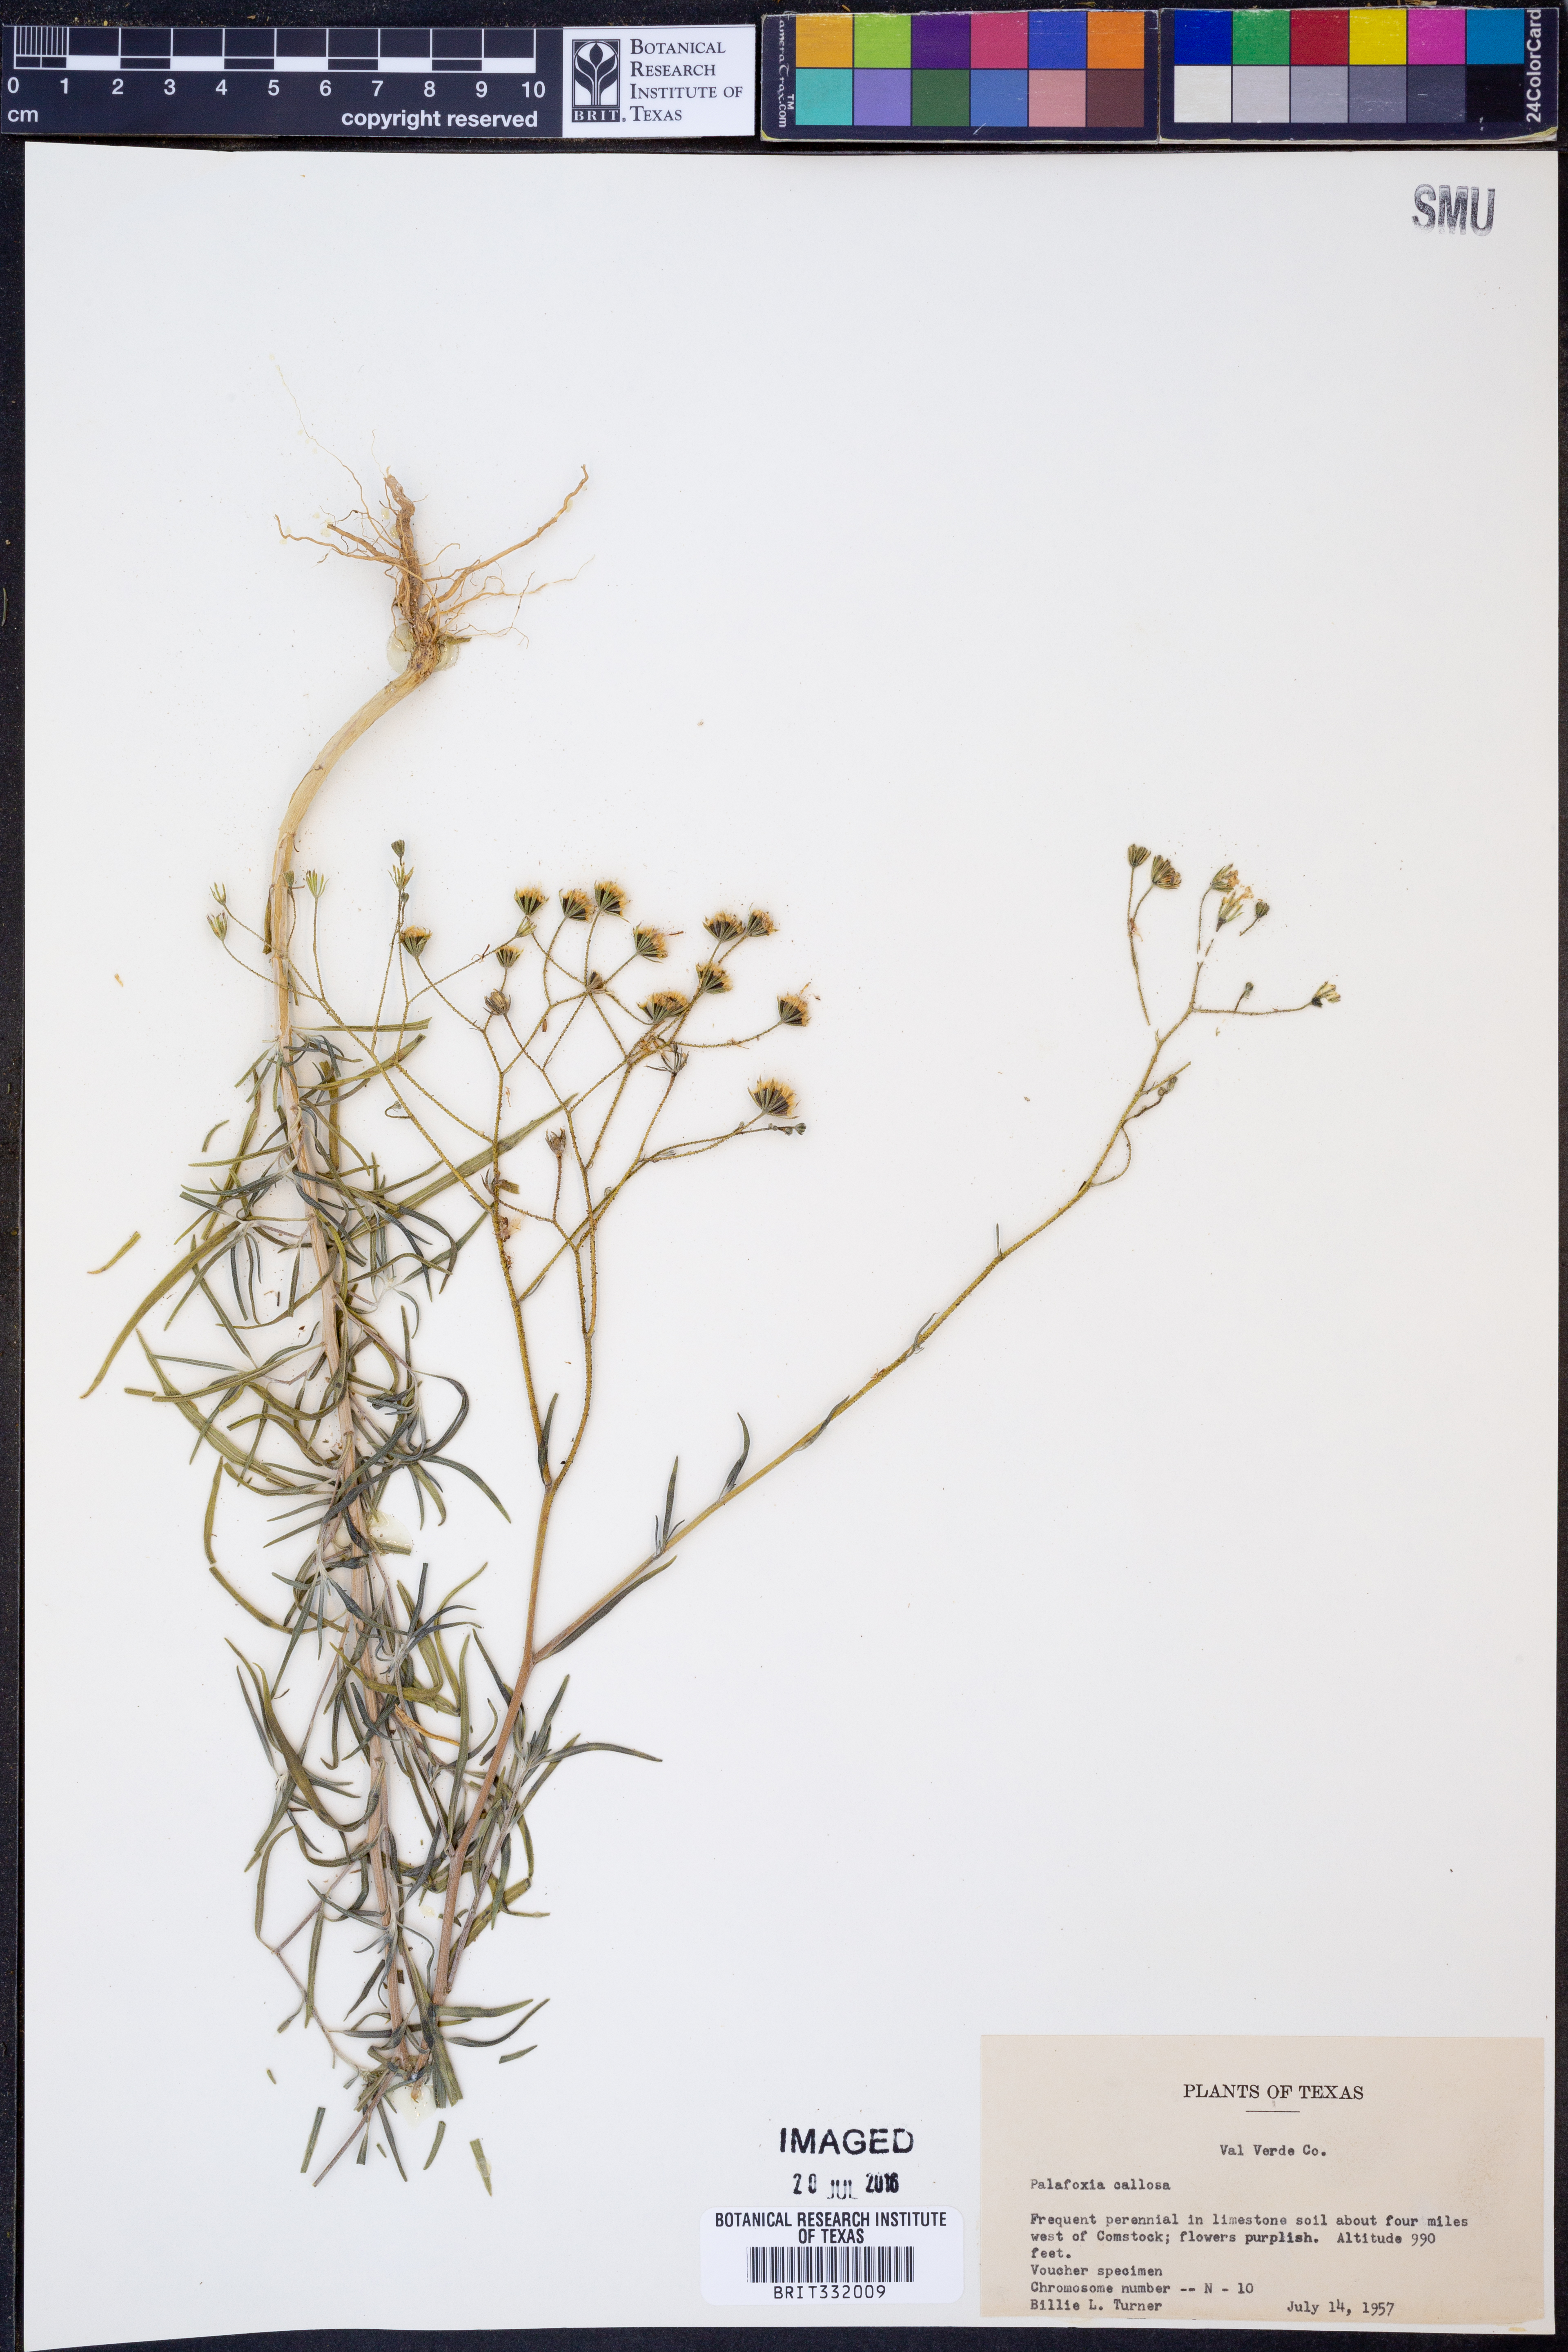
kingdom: Plantae
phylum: Tracheophyta
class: Magnoliopsida
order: Asterales
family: Asteraceae
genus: Palafoxia
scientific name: Palafoxia callosa
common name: Small palafox
